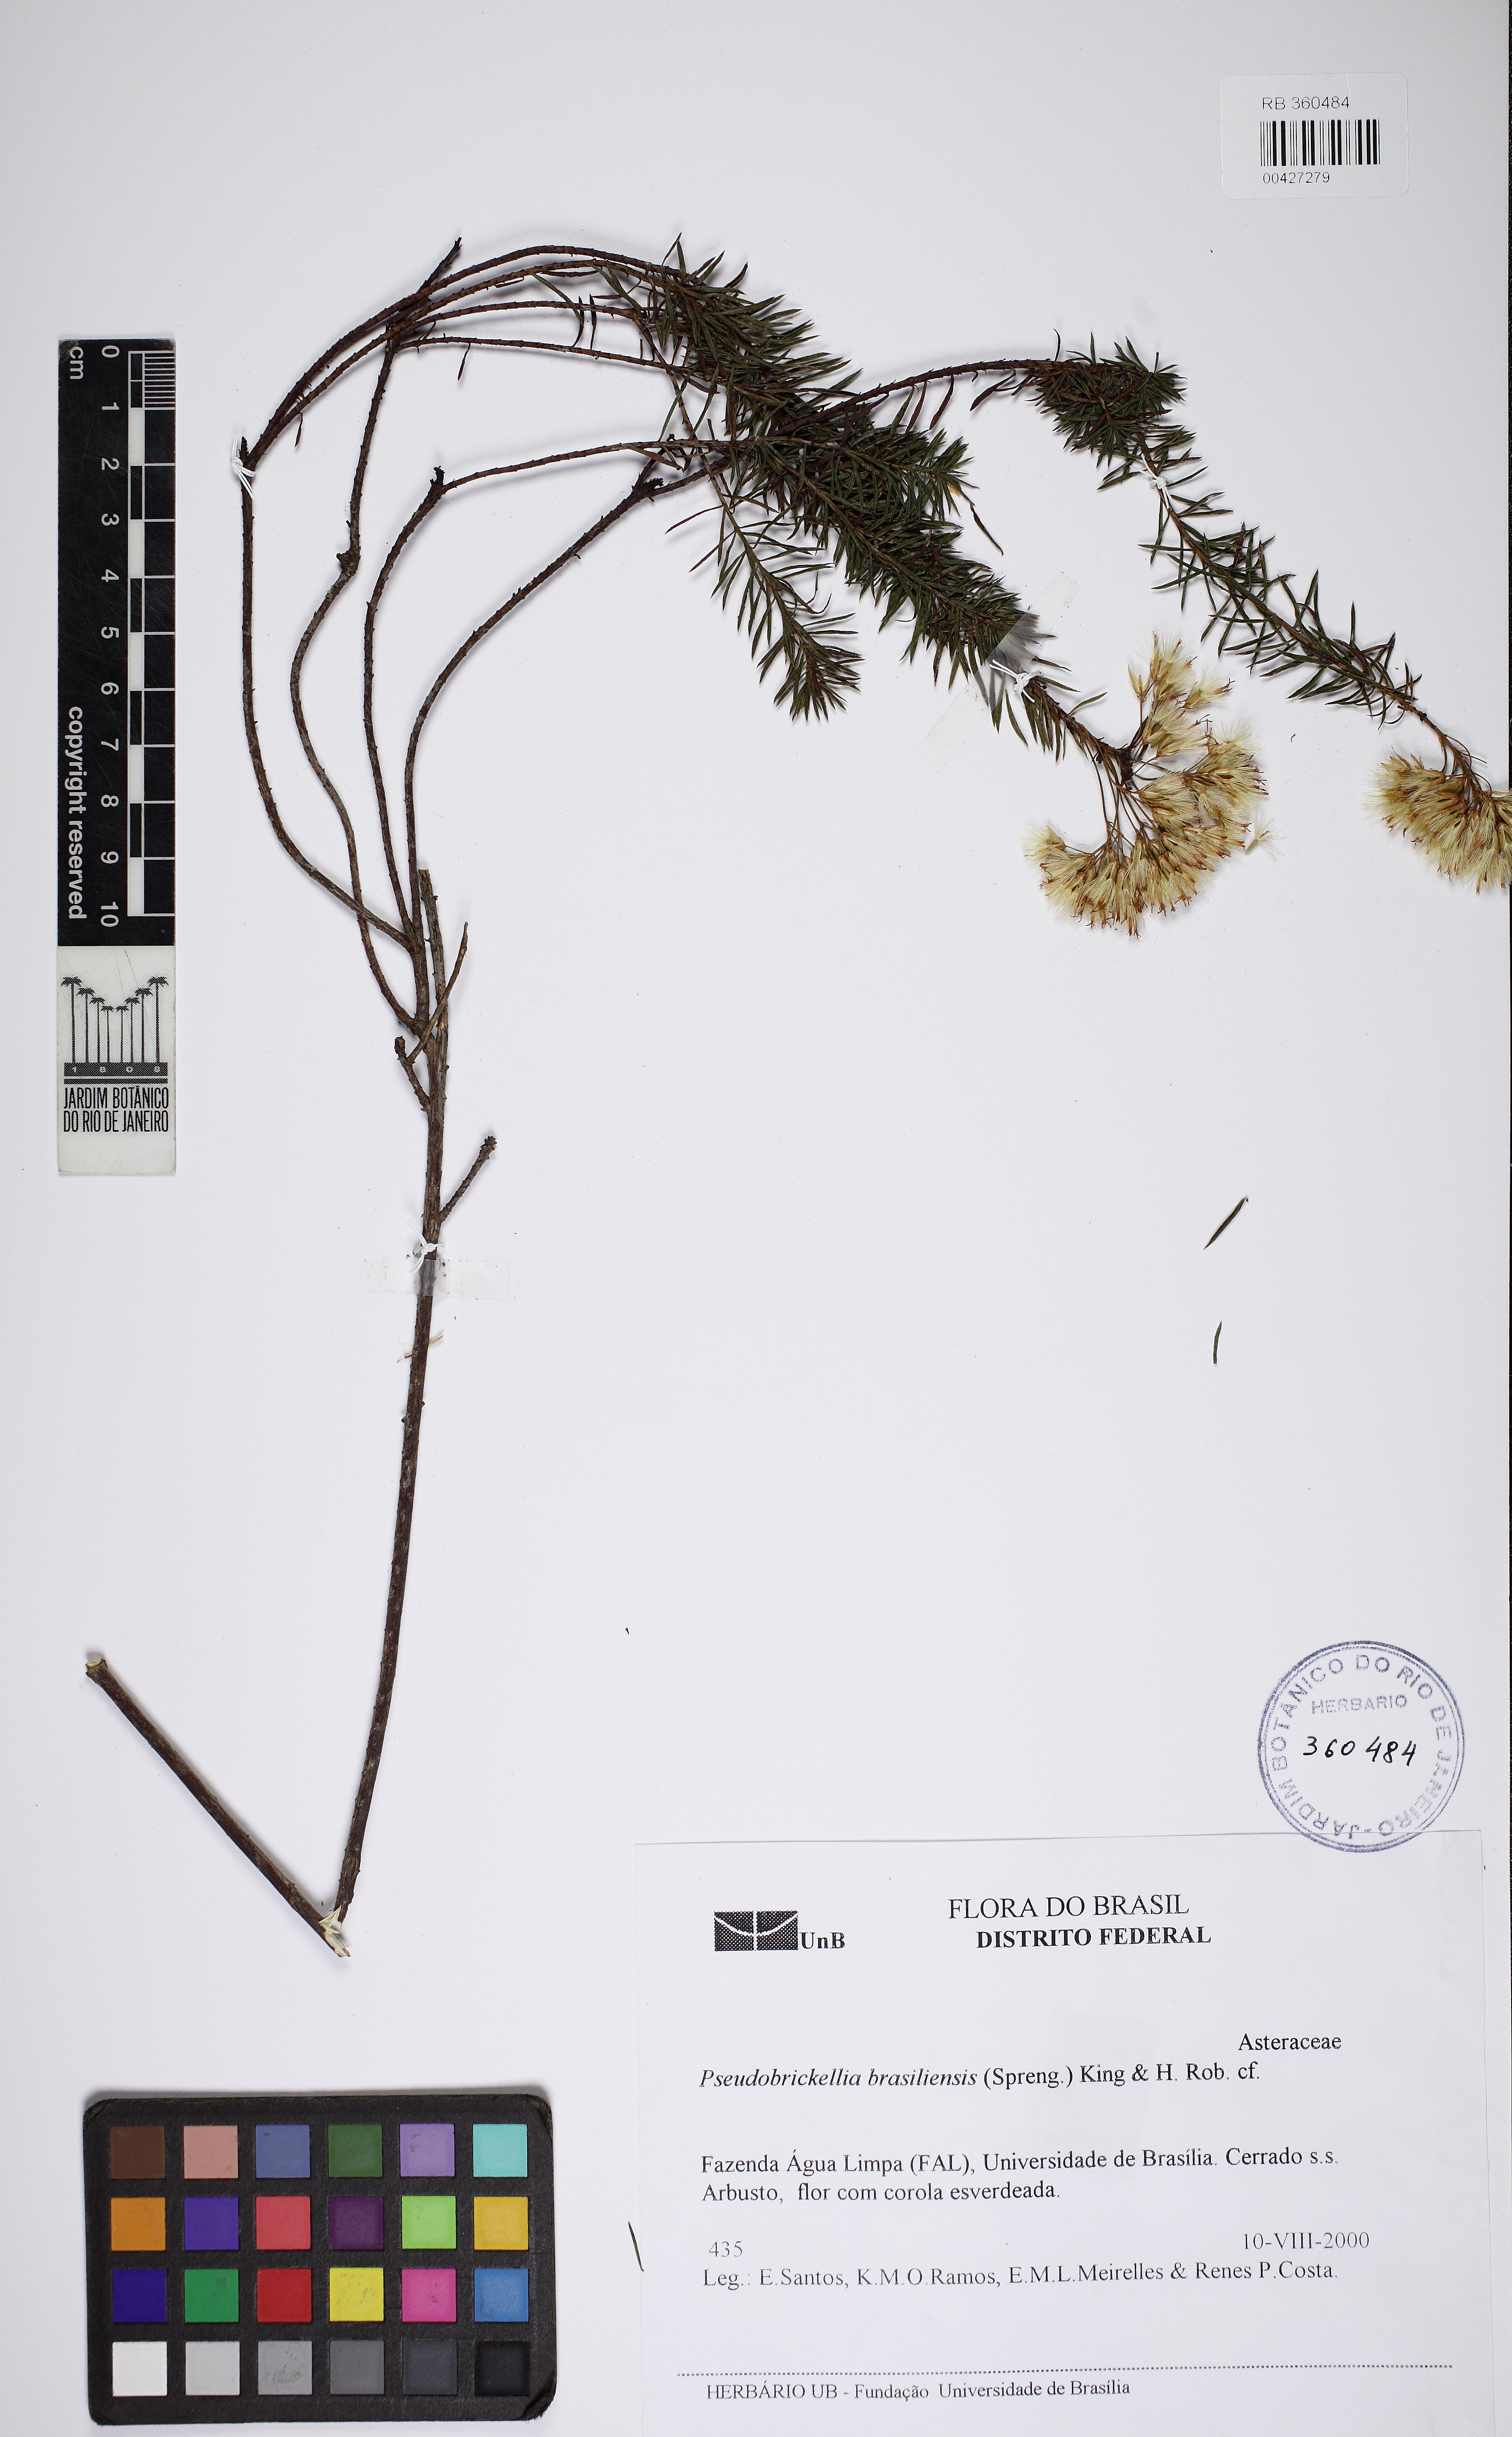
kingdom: Plantae
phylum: Tracheophyta
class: Magnoliopsida
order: Asterales
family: Asteraceae
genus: Pseudobrickellia
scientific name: Pseudobrickellia brasiliensis
